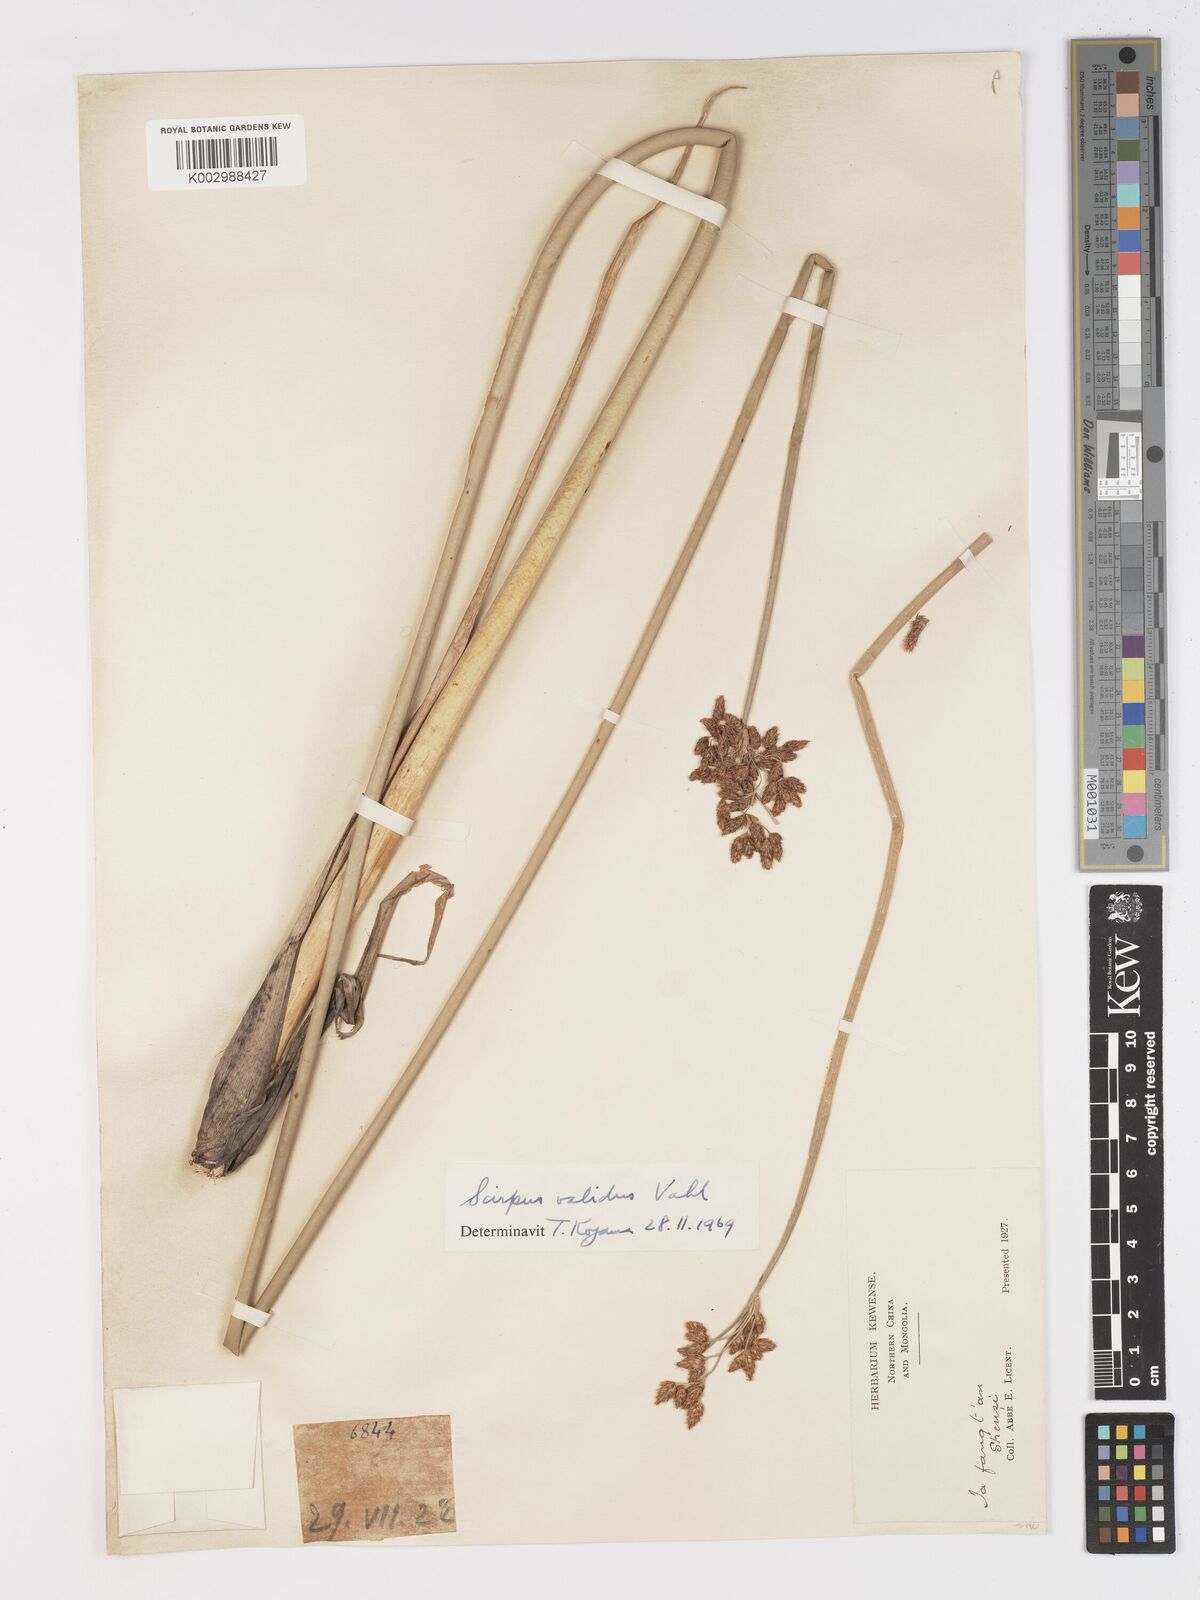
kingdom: Plantae
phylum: Tracheophyta
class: Liliopsida
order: Poales
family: Cyperaceae
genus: Schoenoplectus
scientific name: Schoenoplectus lacustris
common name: Common club-rush
